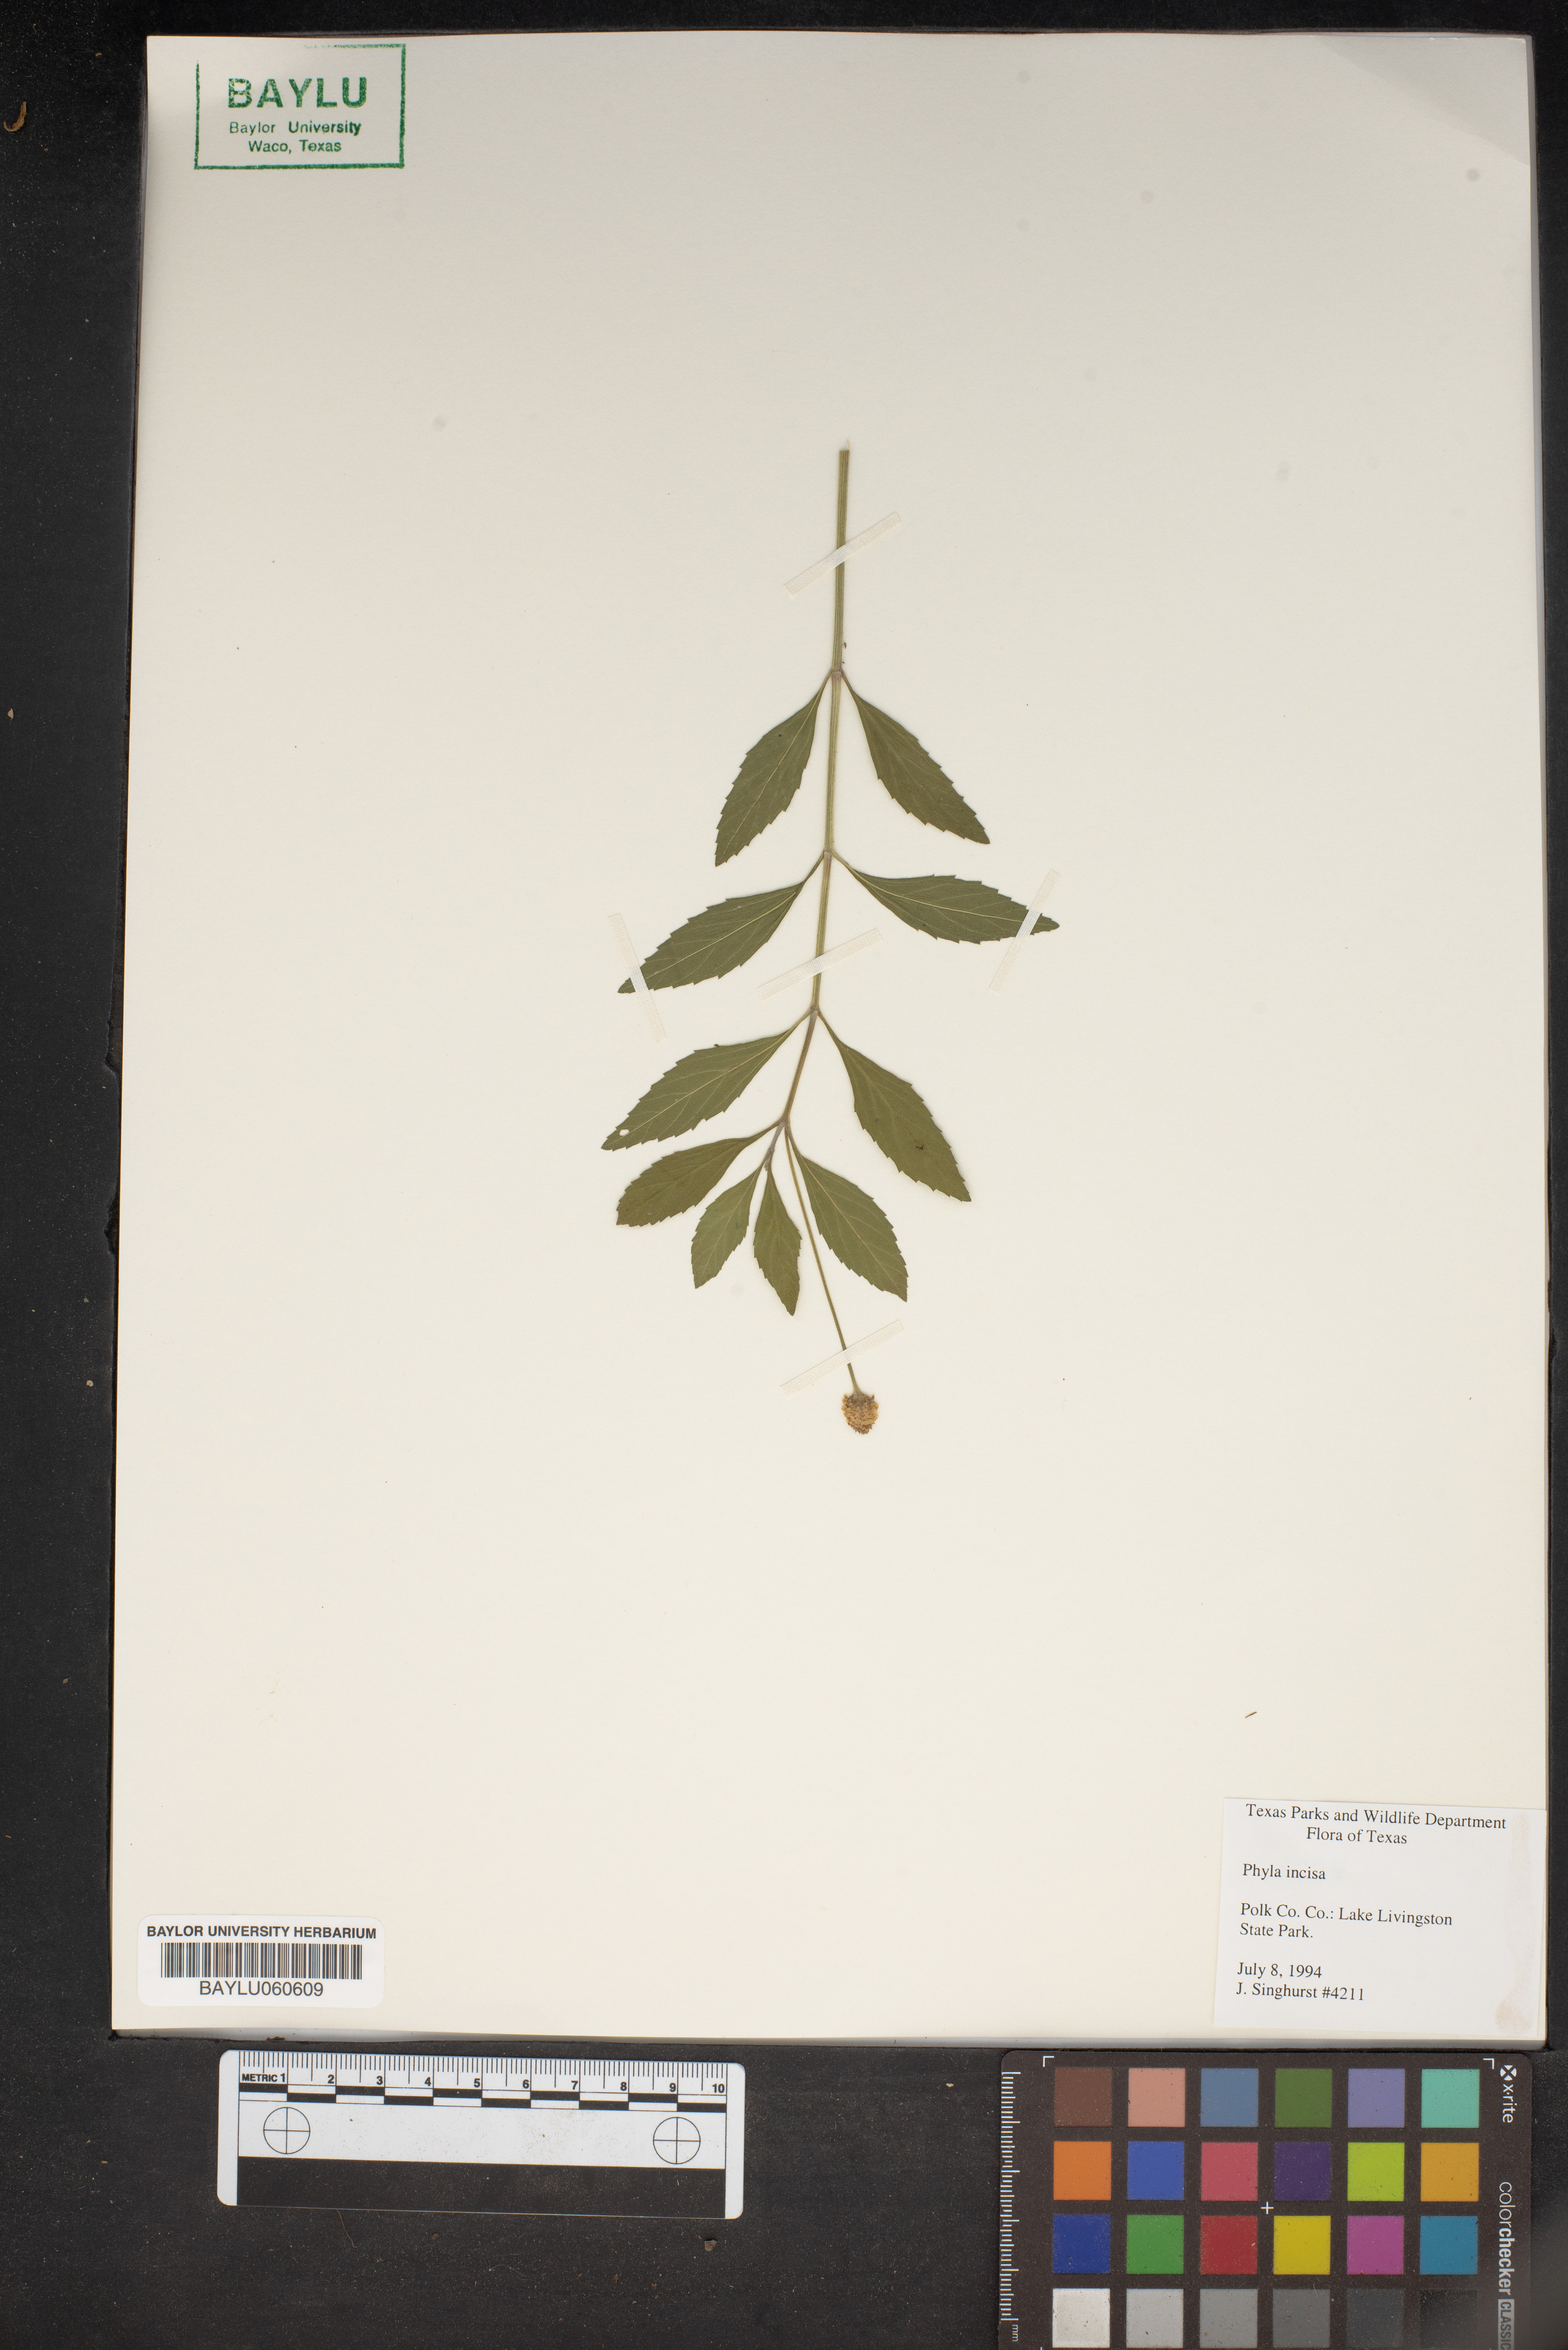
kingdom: Plantae
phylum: Tracheophyta
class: Magnoliopsida
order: Lamiales
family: Verbenaceae
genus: Phyla
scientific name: Phyla nodiflora
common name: Frogfruit
